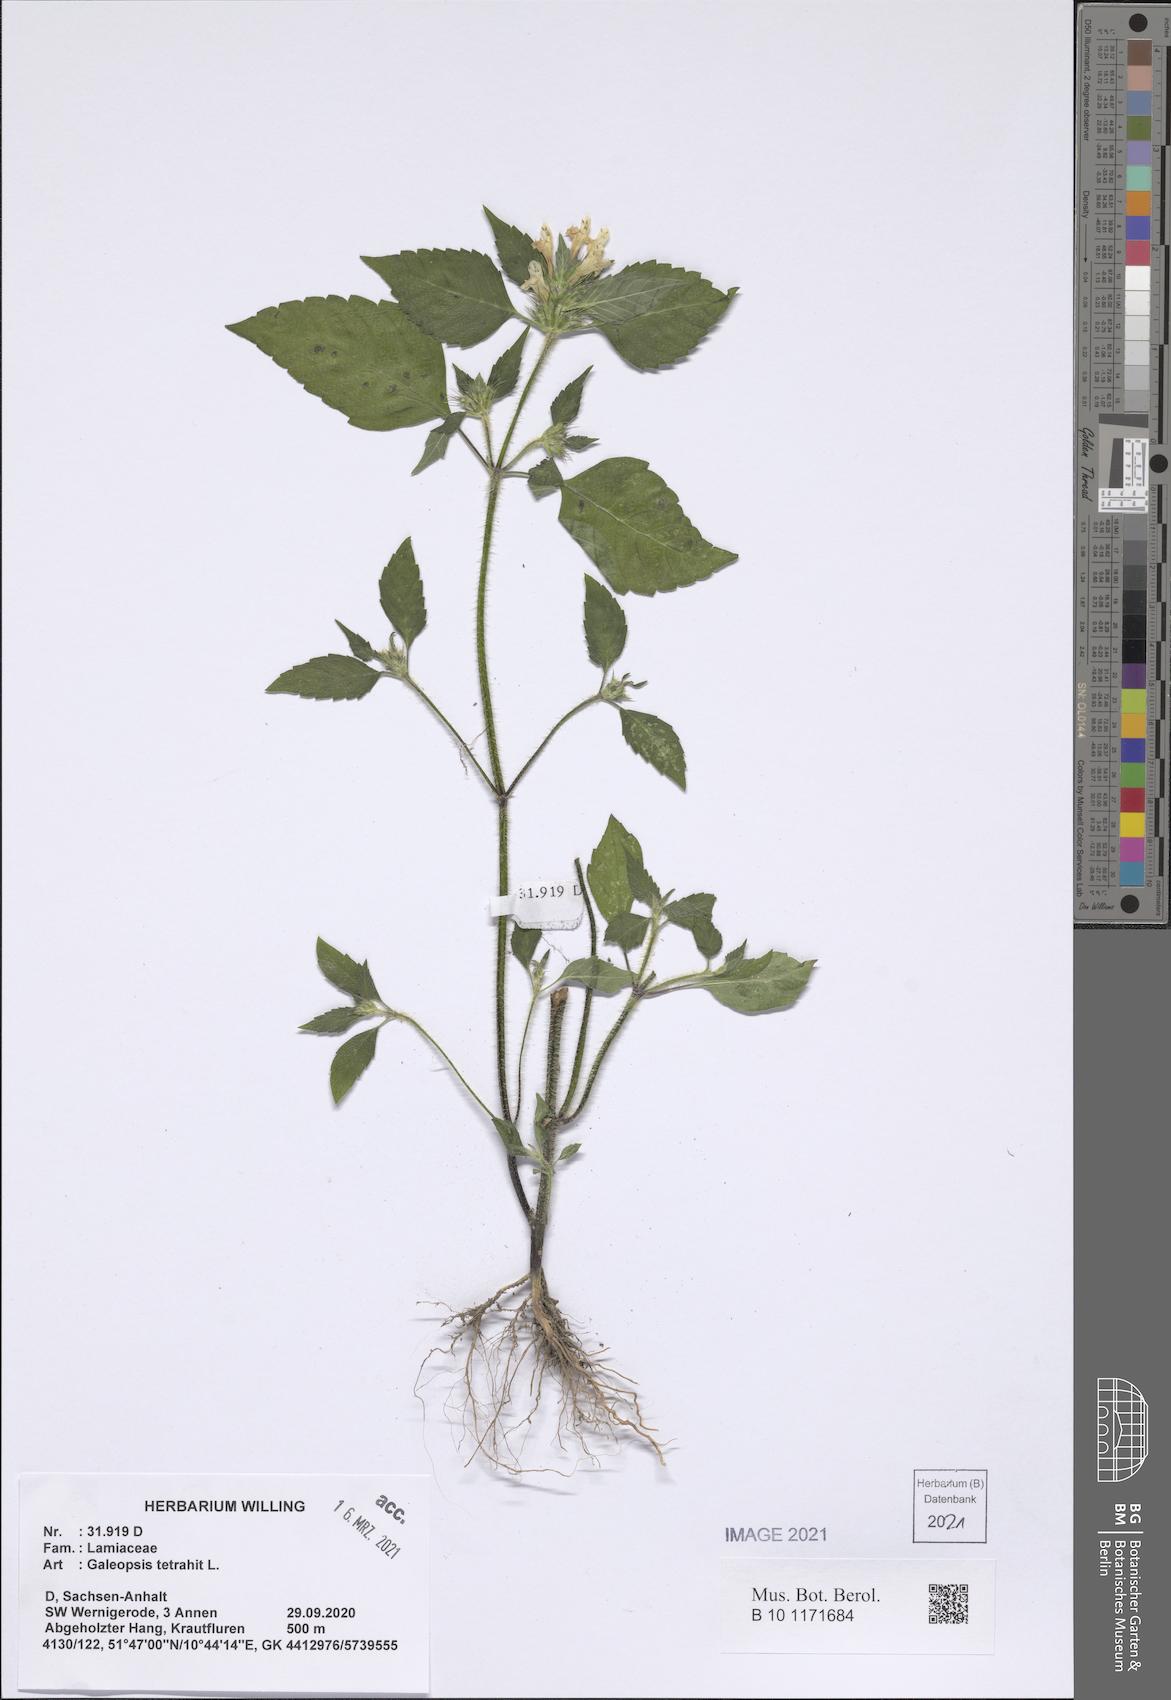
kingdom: Plantae
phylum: Tracheophyta
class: Magnoliopsida
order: Lamiales
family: Lamiaceae
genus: Galeopsis
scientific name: Galeopsis tetrahit
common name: Common hemp-nettle
